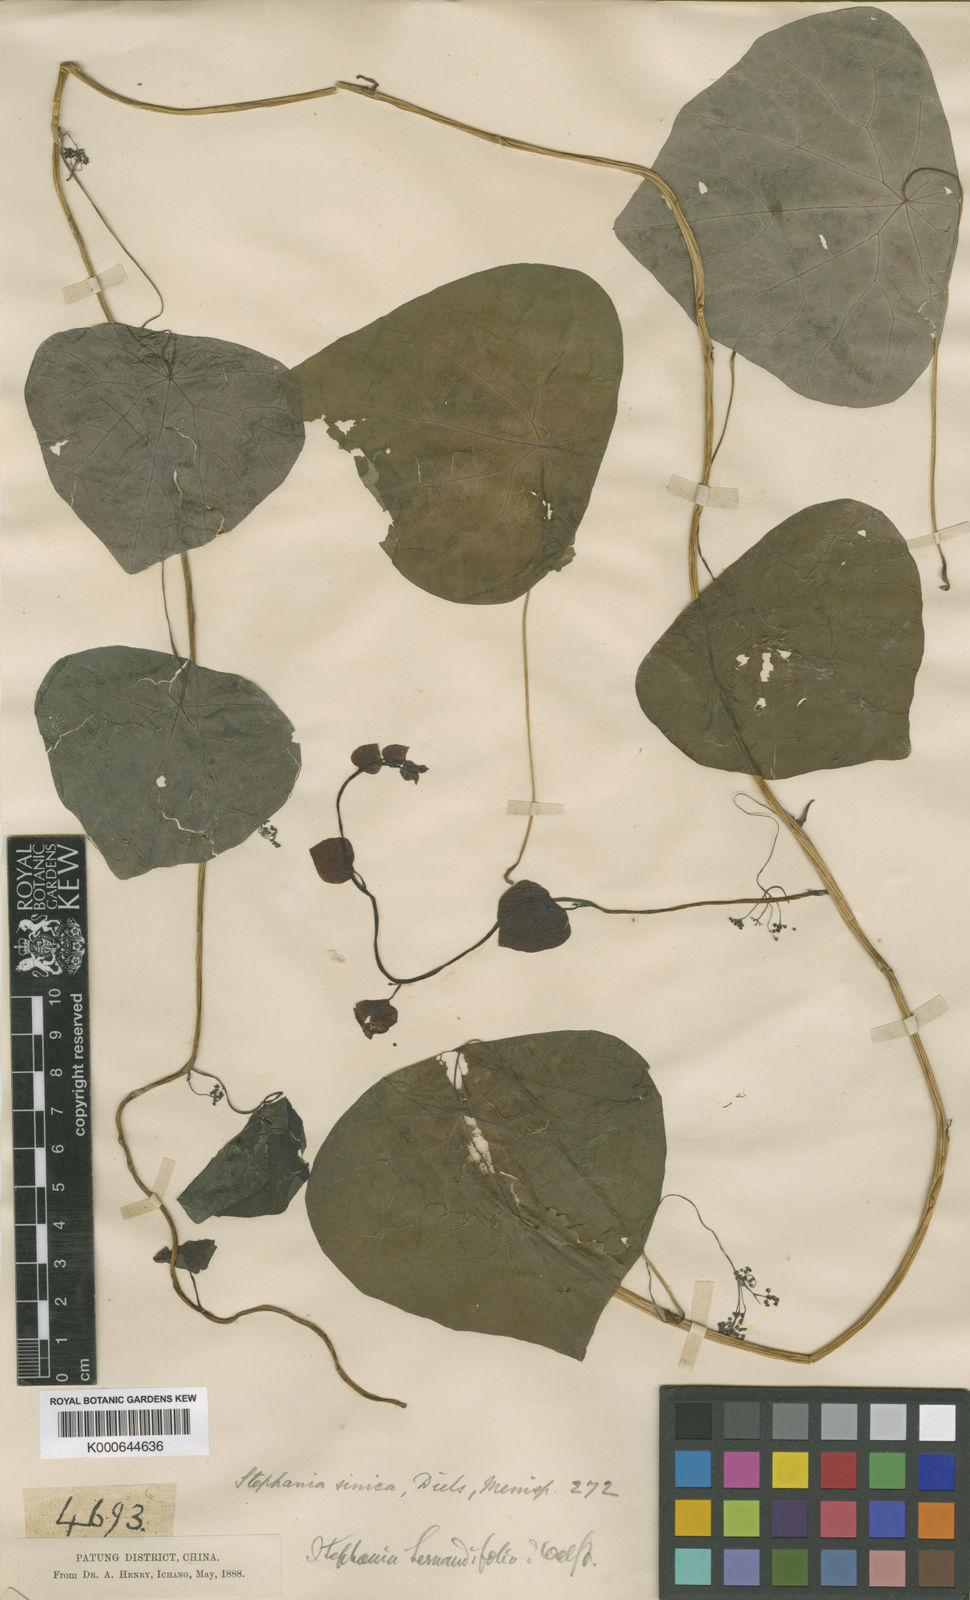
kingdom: Plantae
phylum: Tracheophyta
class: Magnoliopsida
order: Ranunculales
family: Menispermaceae
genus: Stephania
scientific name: Stephania sinica
